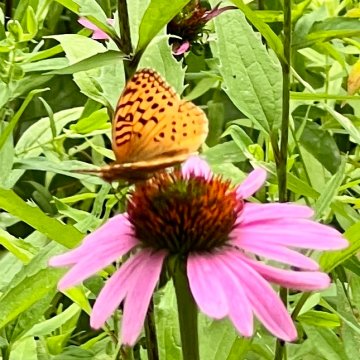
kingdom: Animalia
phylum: Arthropoda
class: Insecta
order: Lepidoptera
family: Nymphalidae
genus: Speyeria
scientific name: Speyeria aphrodite
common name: Aphrodite Fritillary
